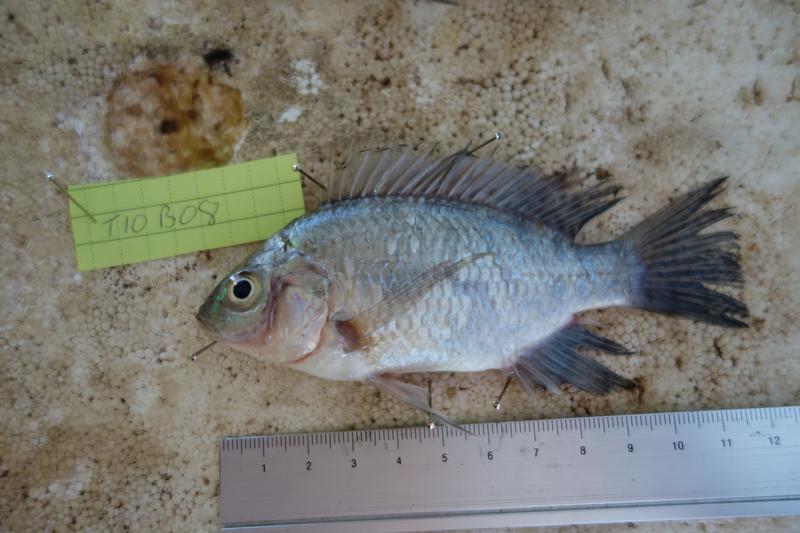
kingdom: Animalia
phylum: Chordata
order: Perciformes
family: Cichlidae
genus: Oreochromis
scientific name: Oreochromis rukwaensis
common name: Lake rukwa tilapia
